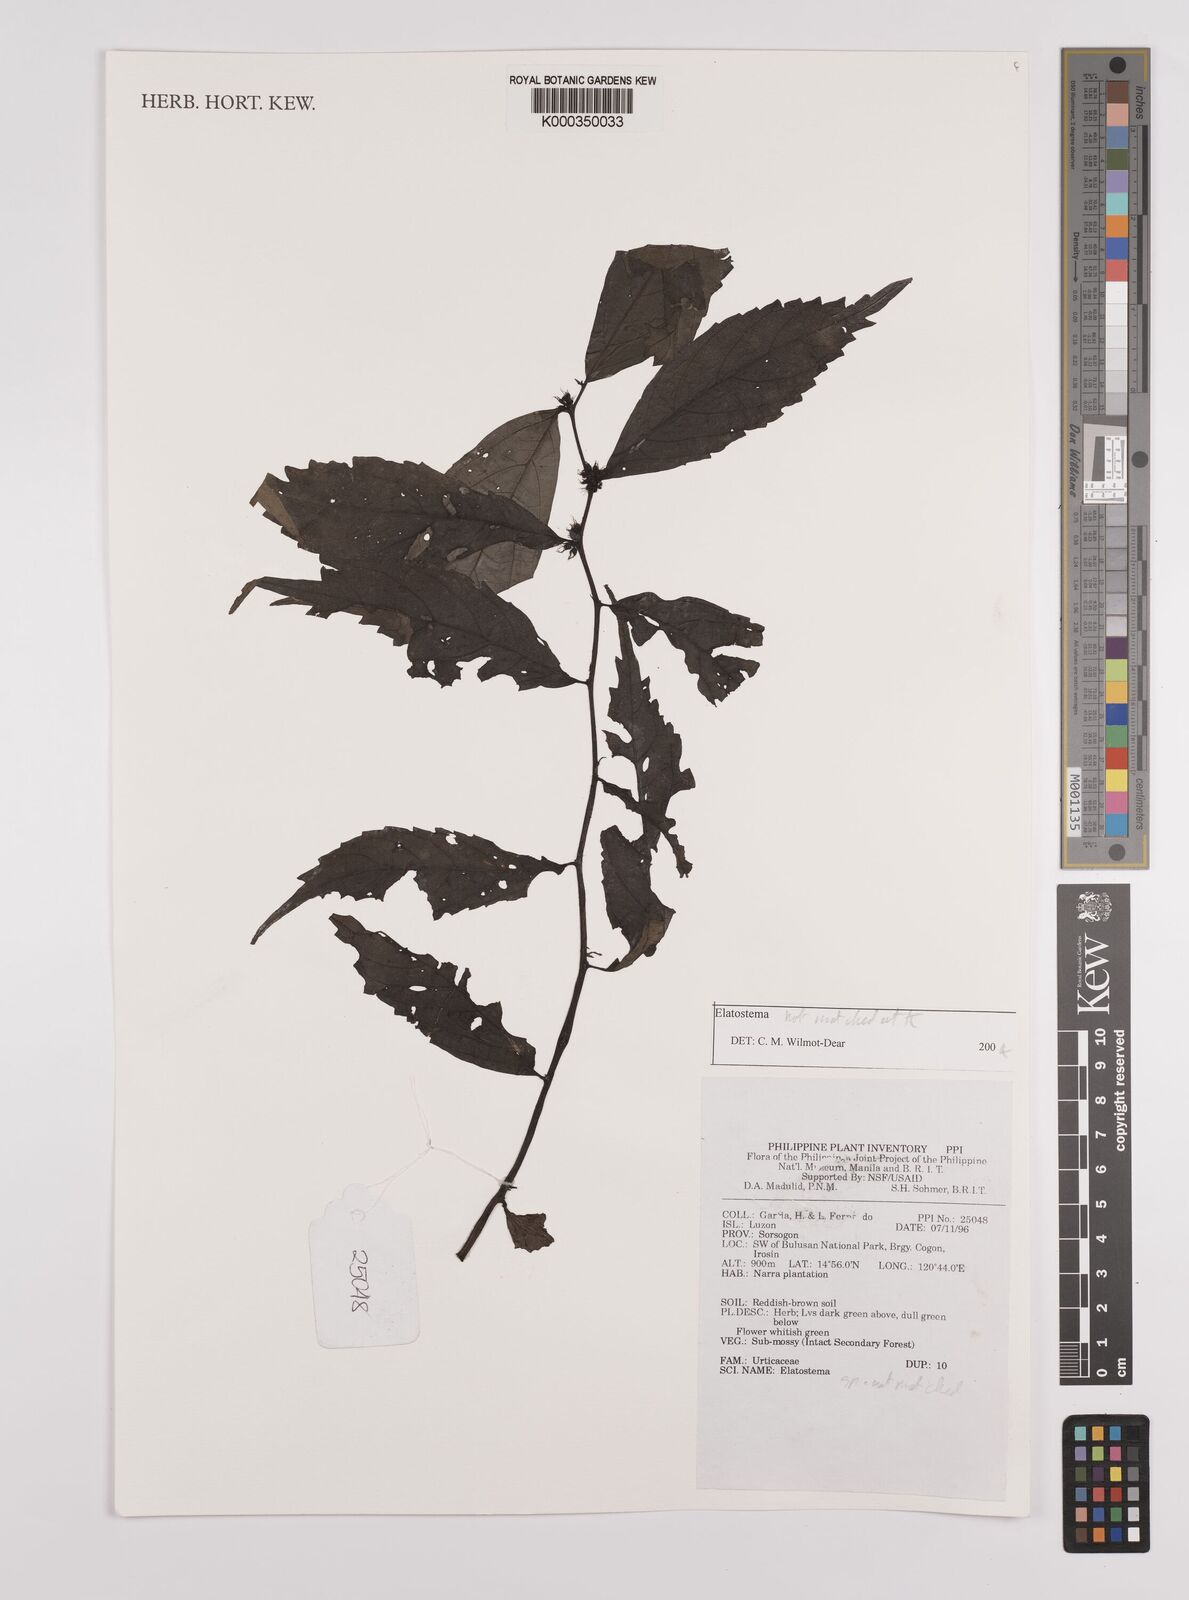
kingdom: Plantae
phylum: Tracheophyta
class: Magnoliopsida
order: Rosales
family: Urticaceae
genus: Elatostema
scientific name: Elatostema
